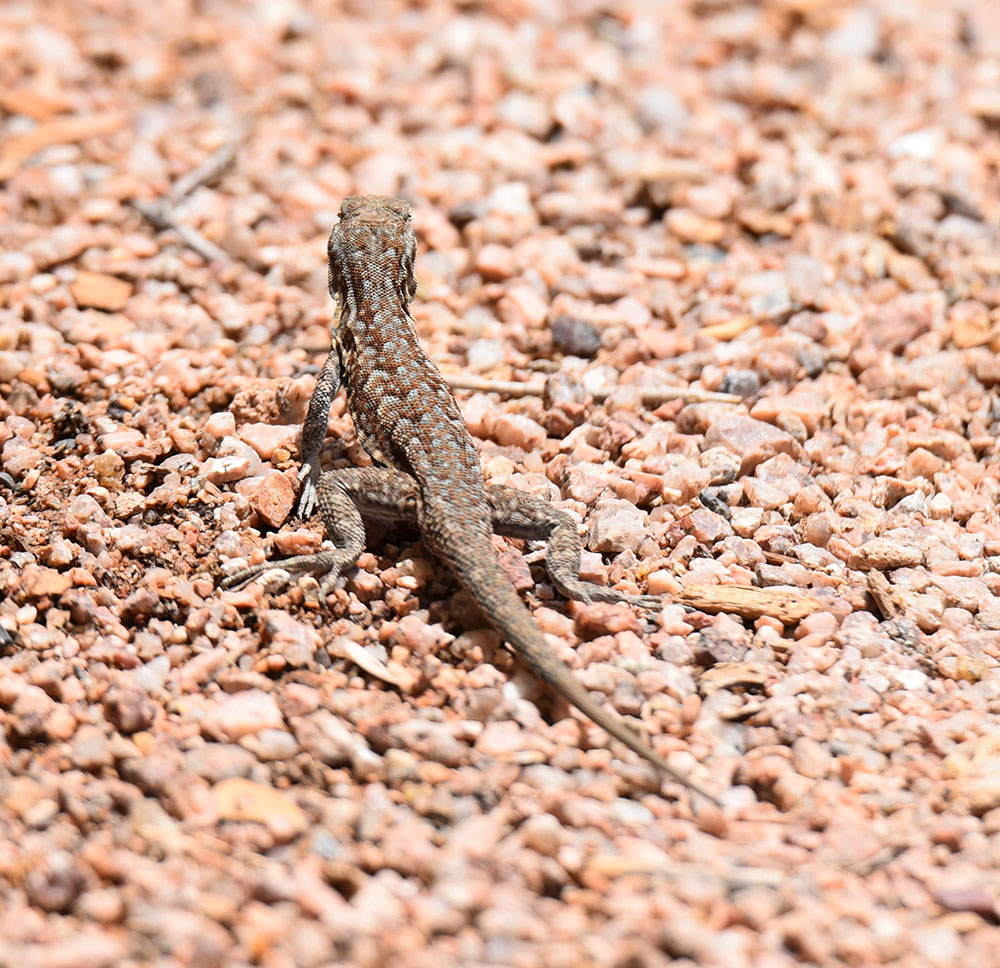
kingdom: Animalia
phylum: Chordata
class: Squamata
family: Phrynosomatidae
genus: Uta
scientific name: Uta stansburiana
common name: Side-blotched lizard
